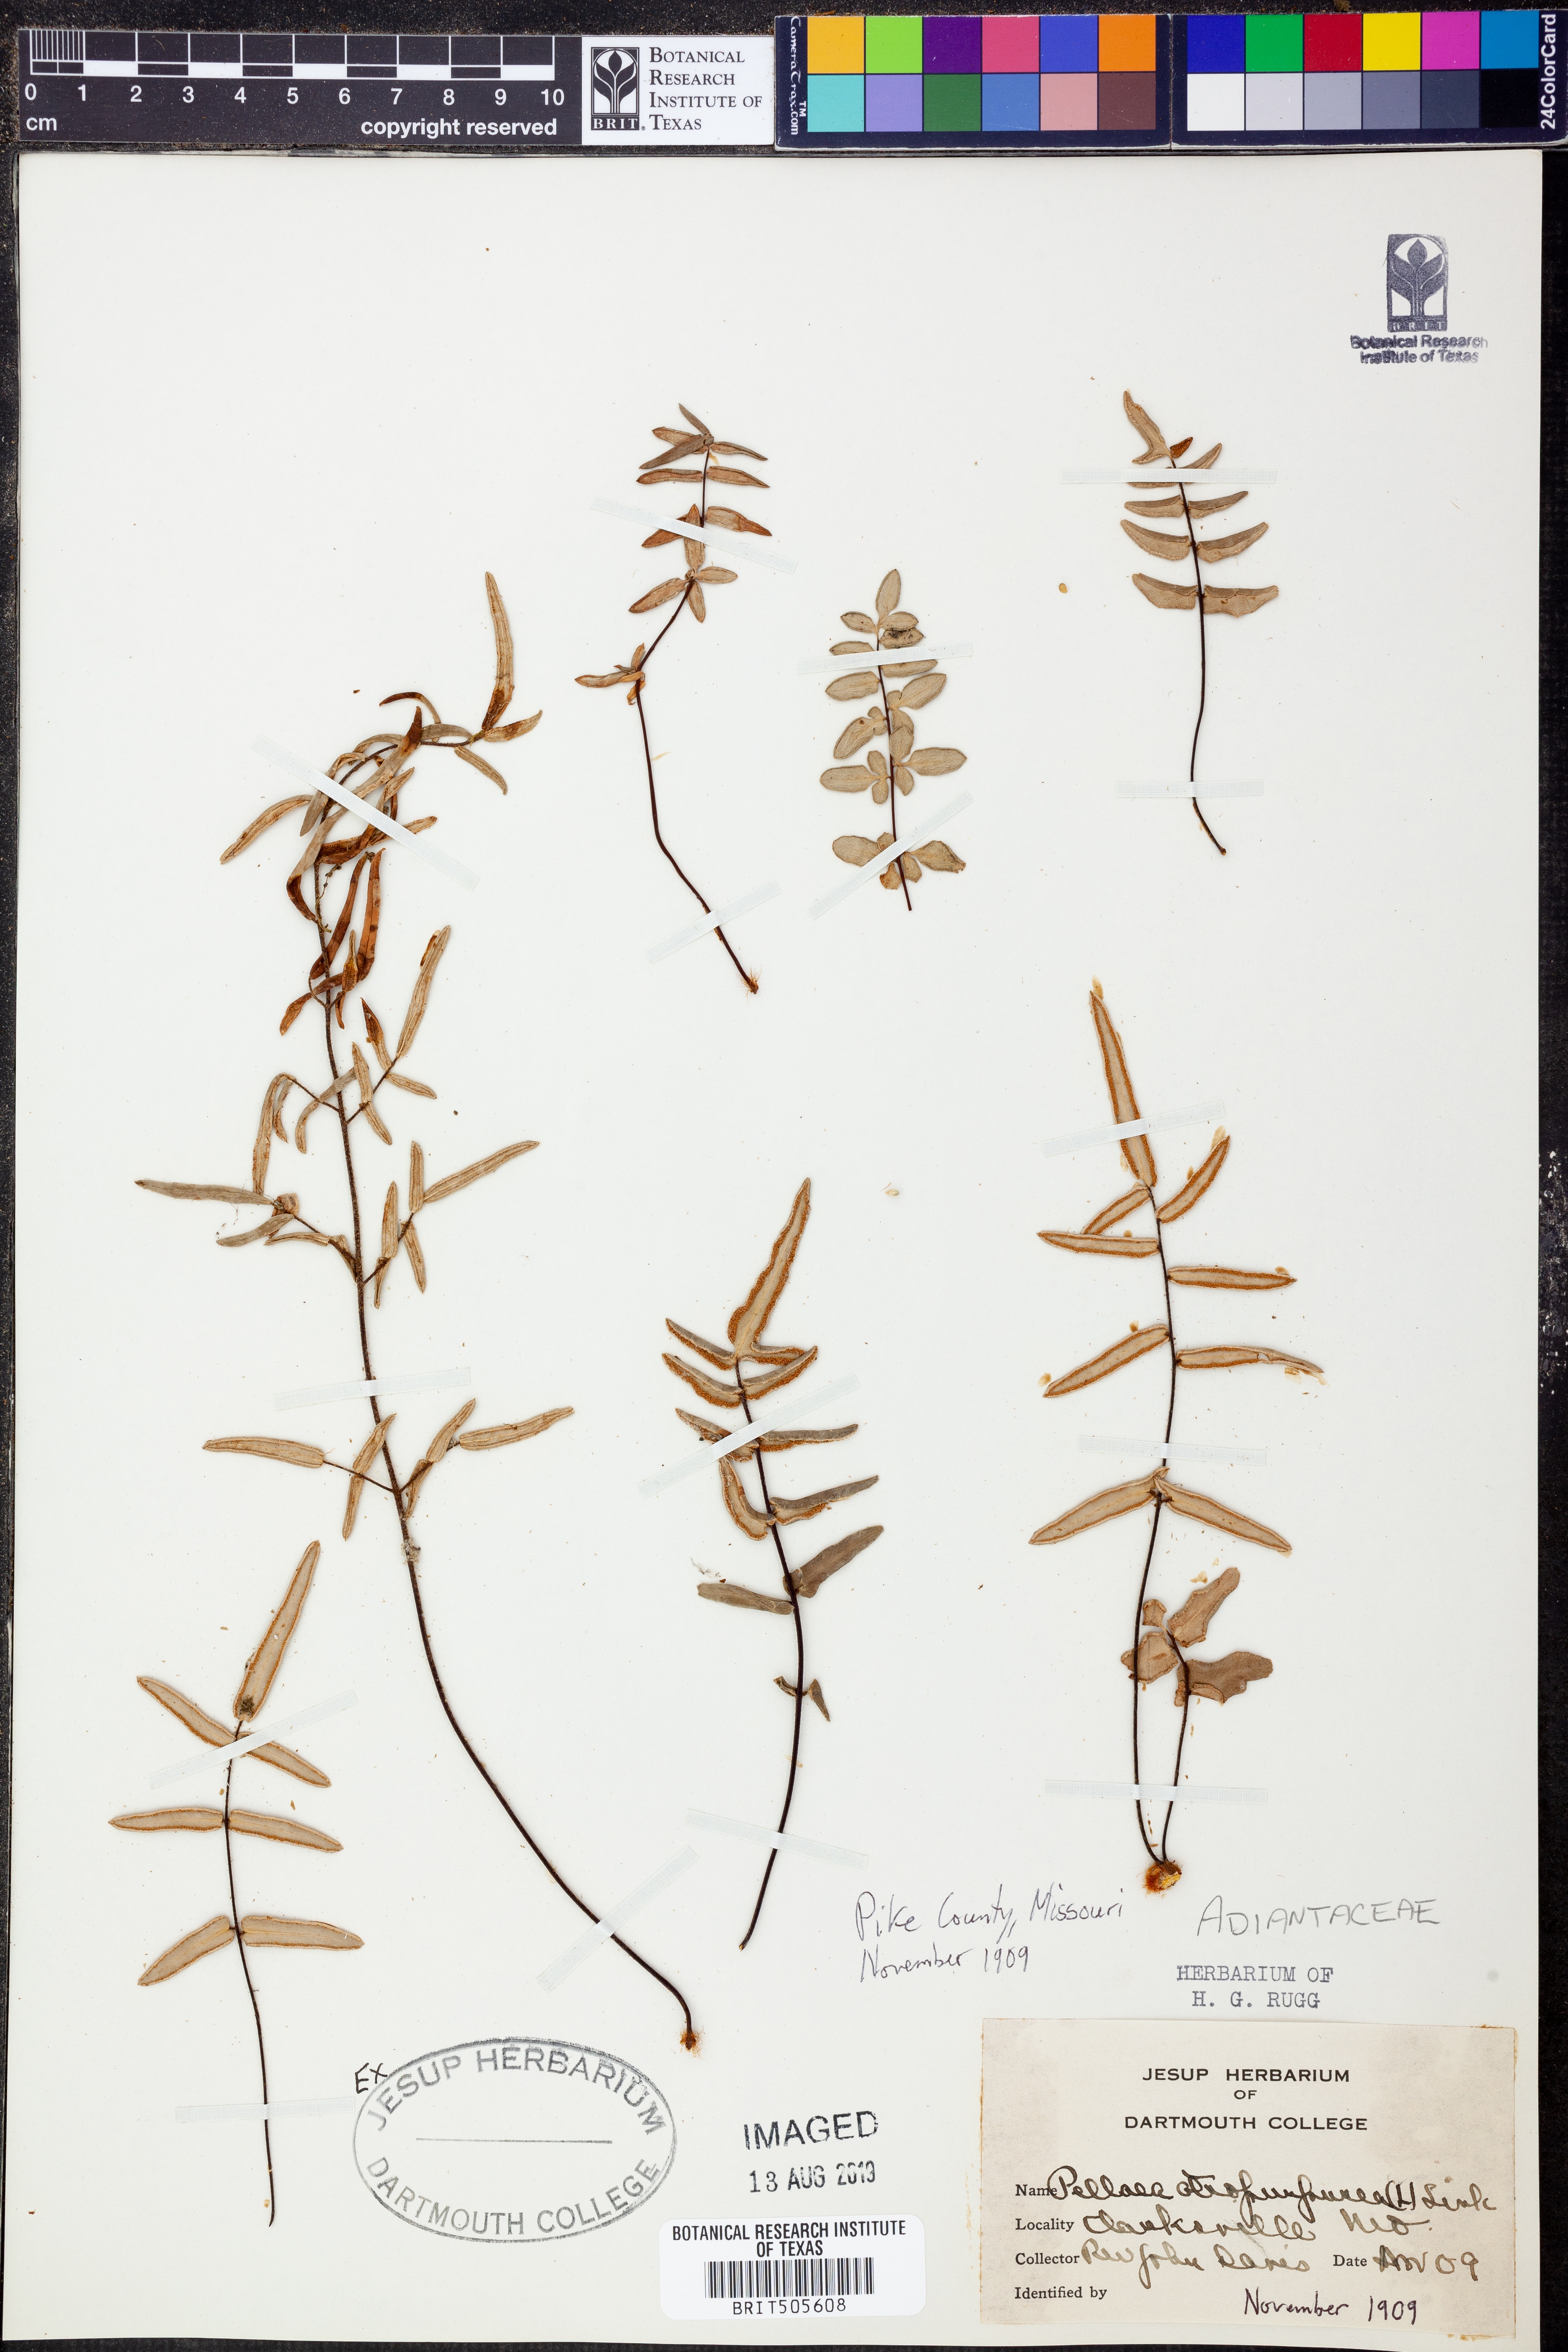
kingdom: Plantae
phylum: Tracheophyta
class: Polypodiopsida
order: Polypodiales
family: Pteridaceae
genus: Pellaea
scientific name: Pellaea atropurpurea
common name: Hairy cliffbrake
